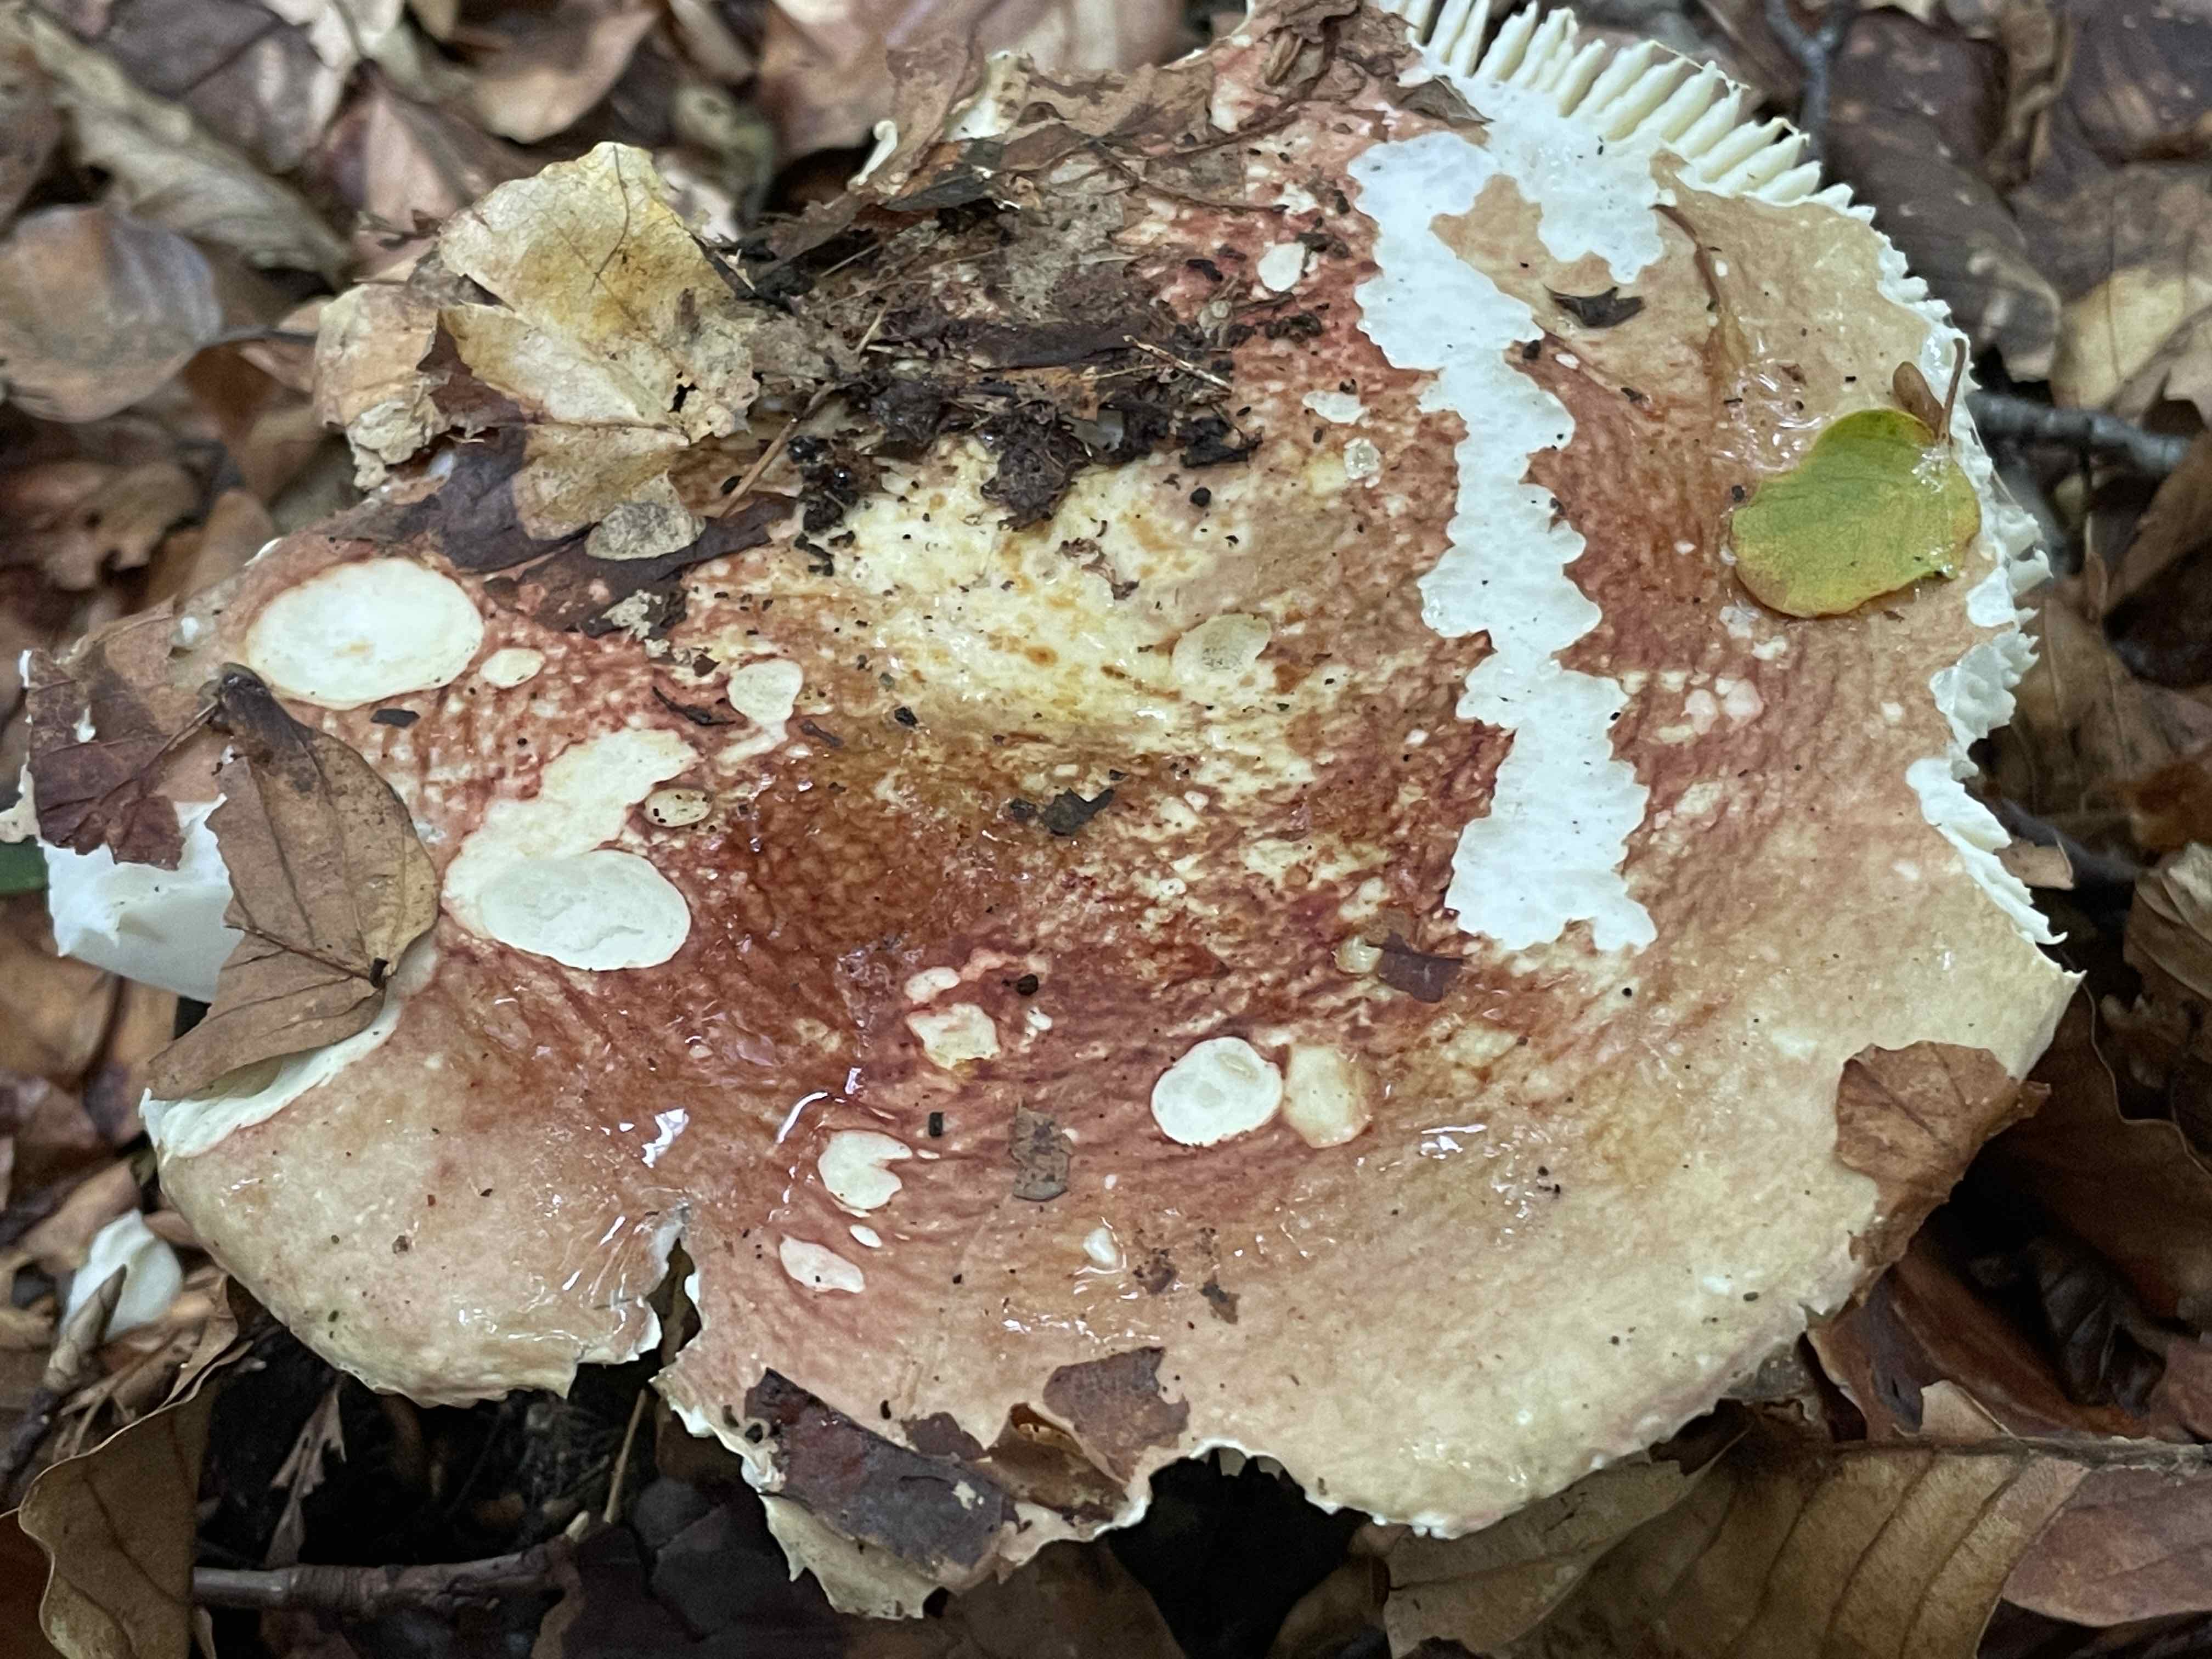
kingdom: Fungi
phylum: Basidiomycota
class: Agaricomycetes
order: Russulales
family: Russulaceae
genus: Russula
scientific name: Russula olivacea
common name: stor skørhat
